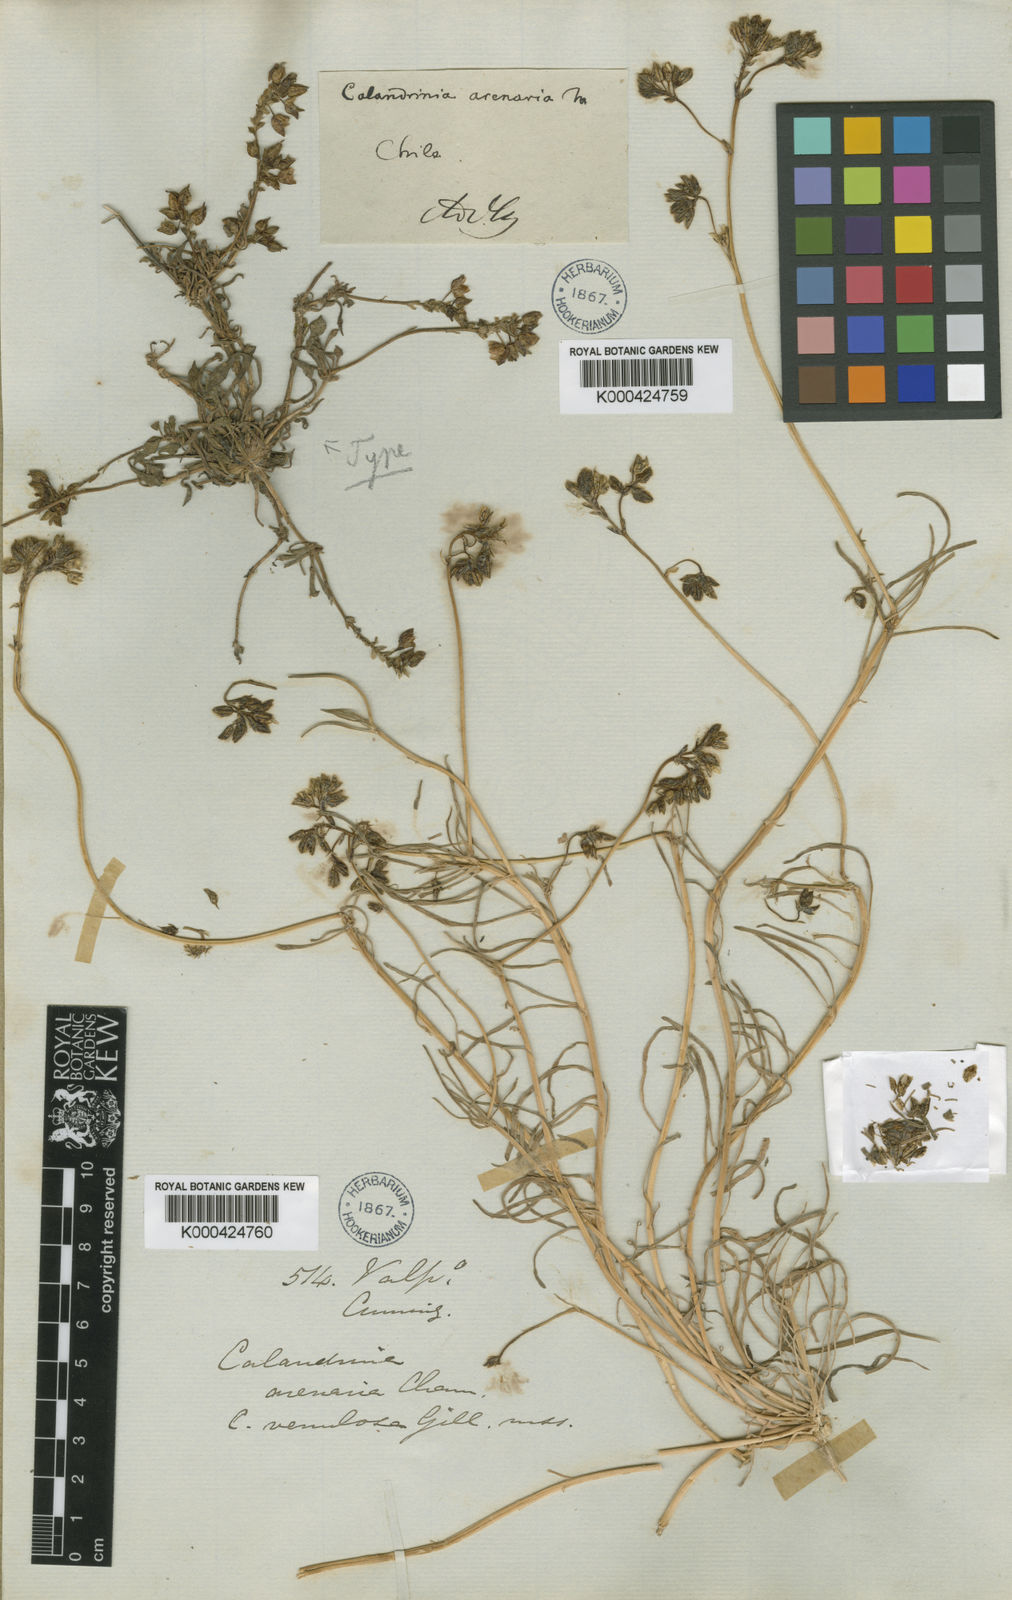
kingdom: Plantae
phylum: Tracheophyta
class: Magnoliopsida
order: Caryophyllales
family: Montiaceae
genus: Cistanthe
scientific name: Cistanthe arenaria
